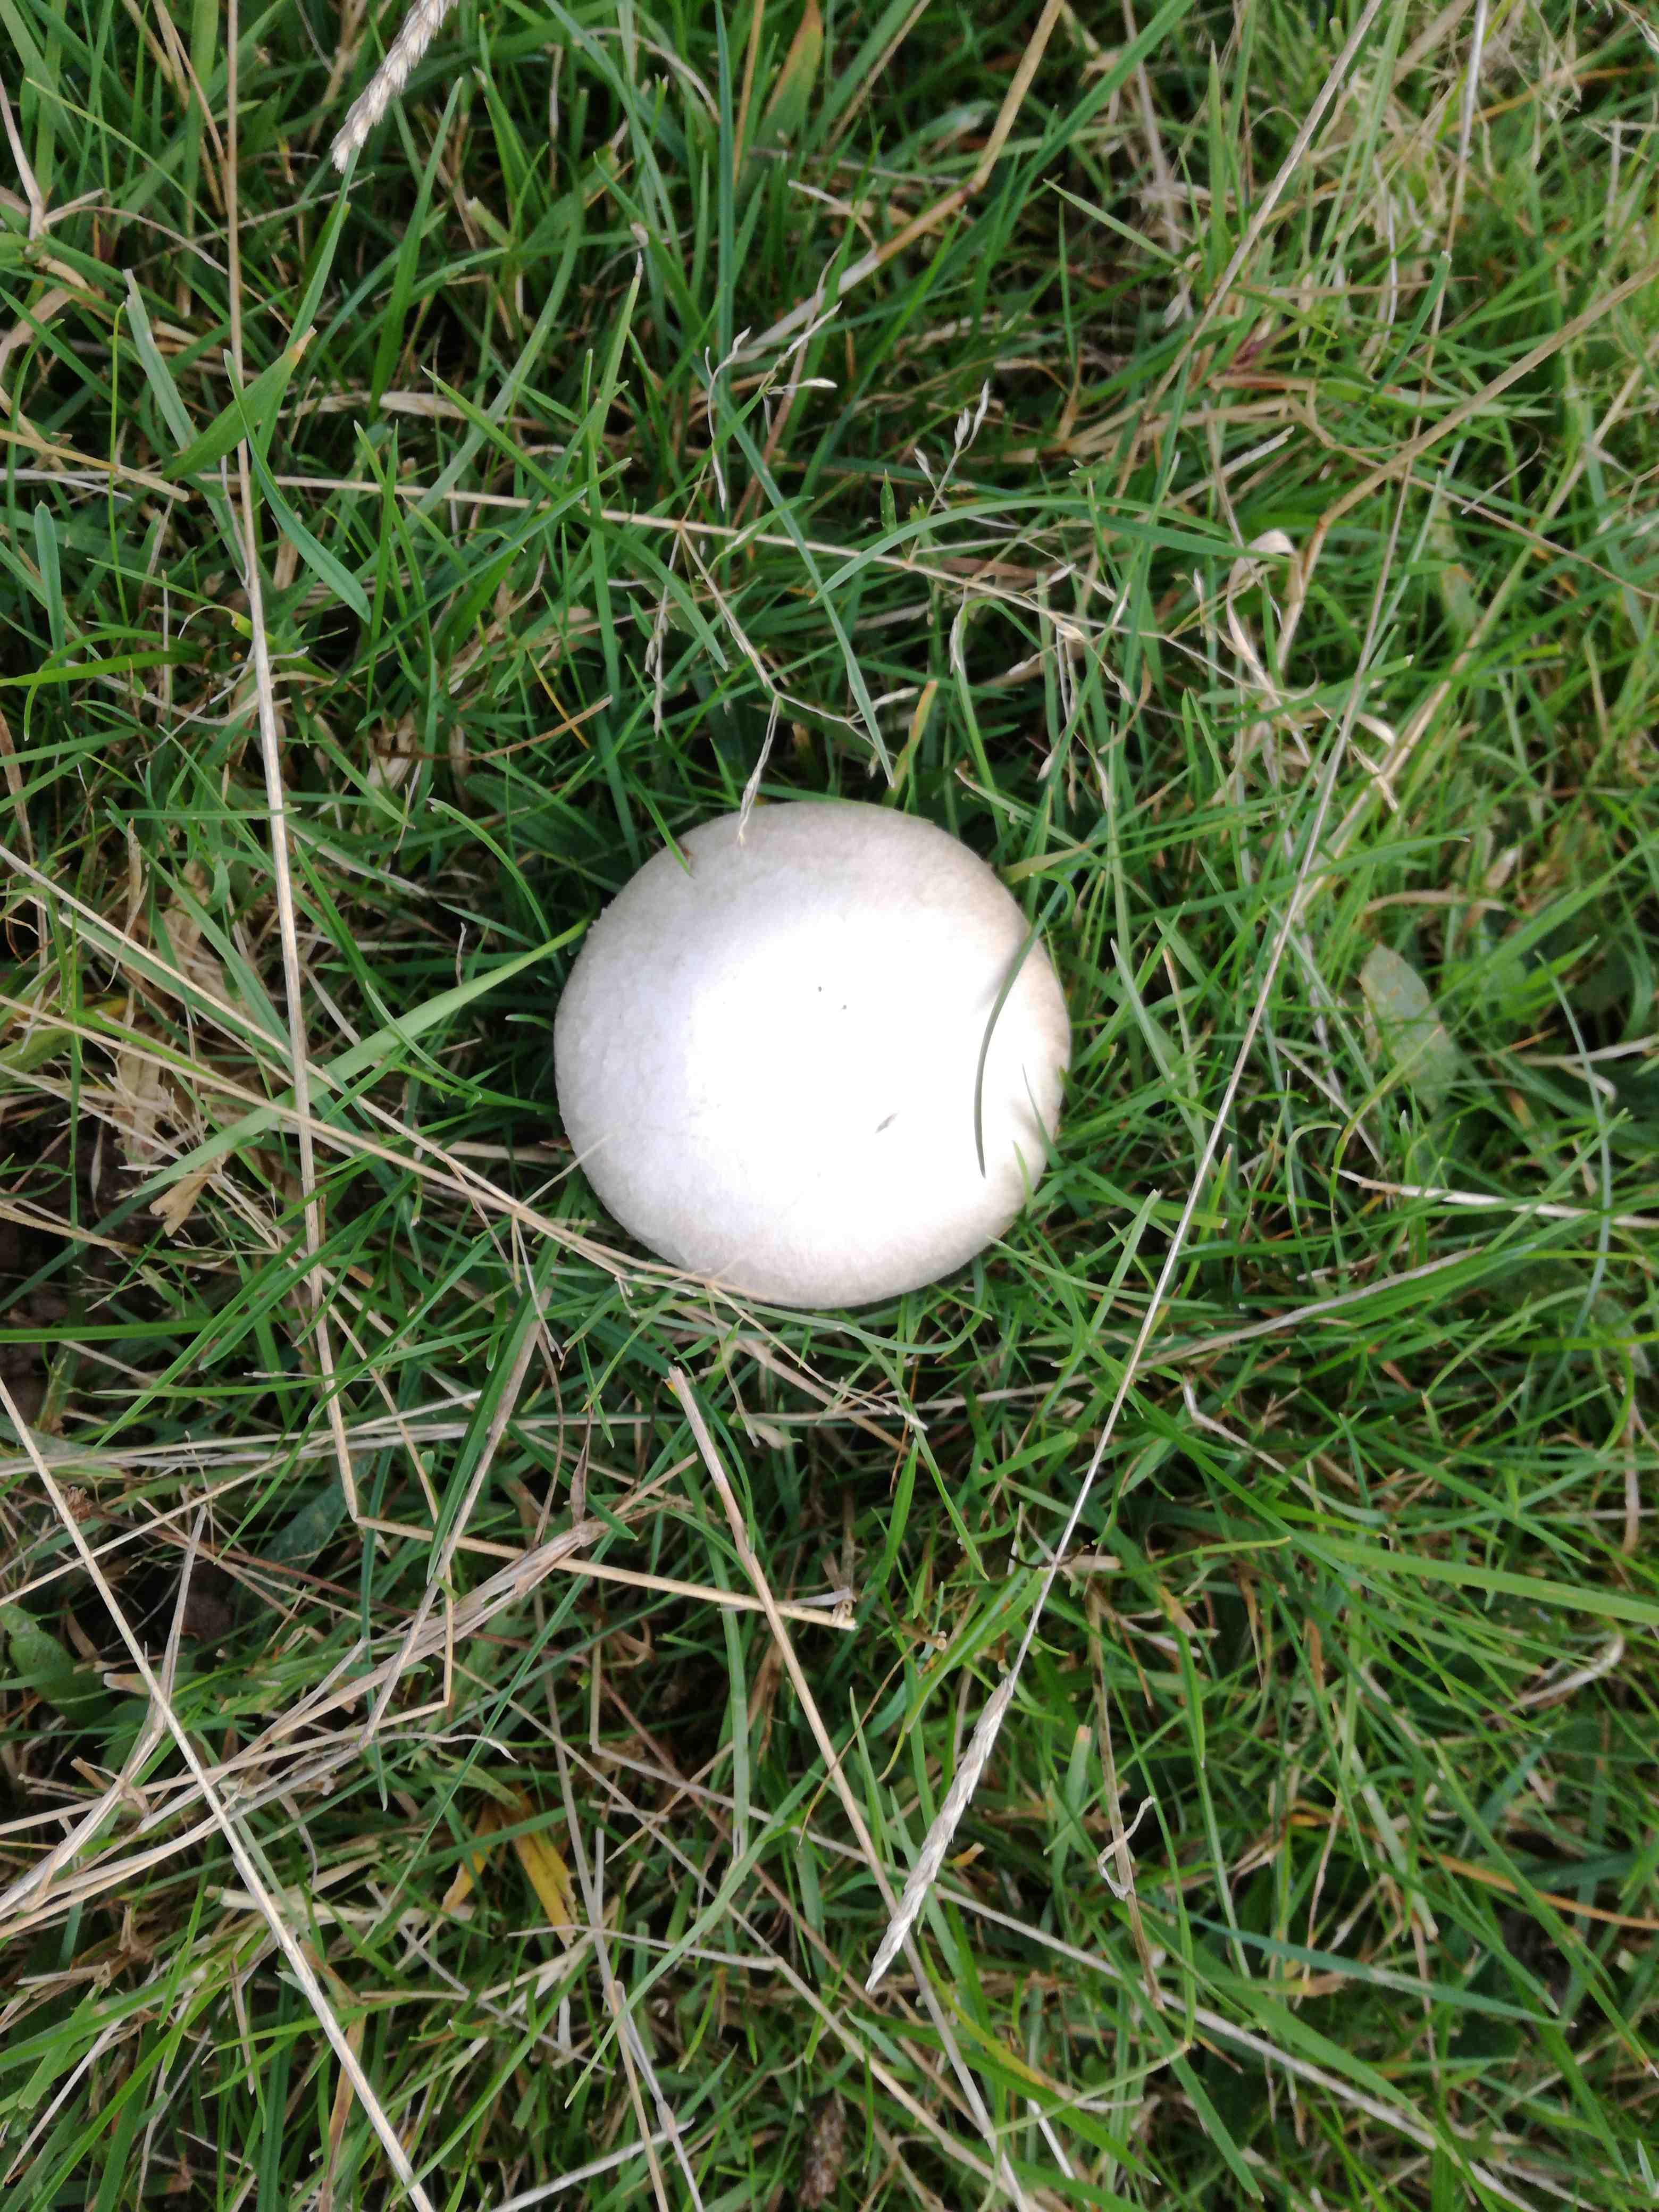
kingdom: Fungi
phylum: Basidiomycota
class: Agaricomycetes
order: Agaricales
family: Agaricaceae
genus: Agaricus
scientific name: Agaricus campestris
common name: mark-champignon
